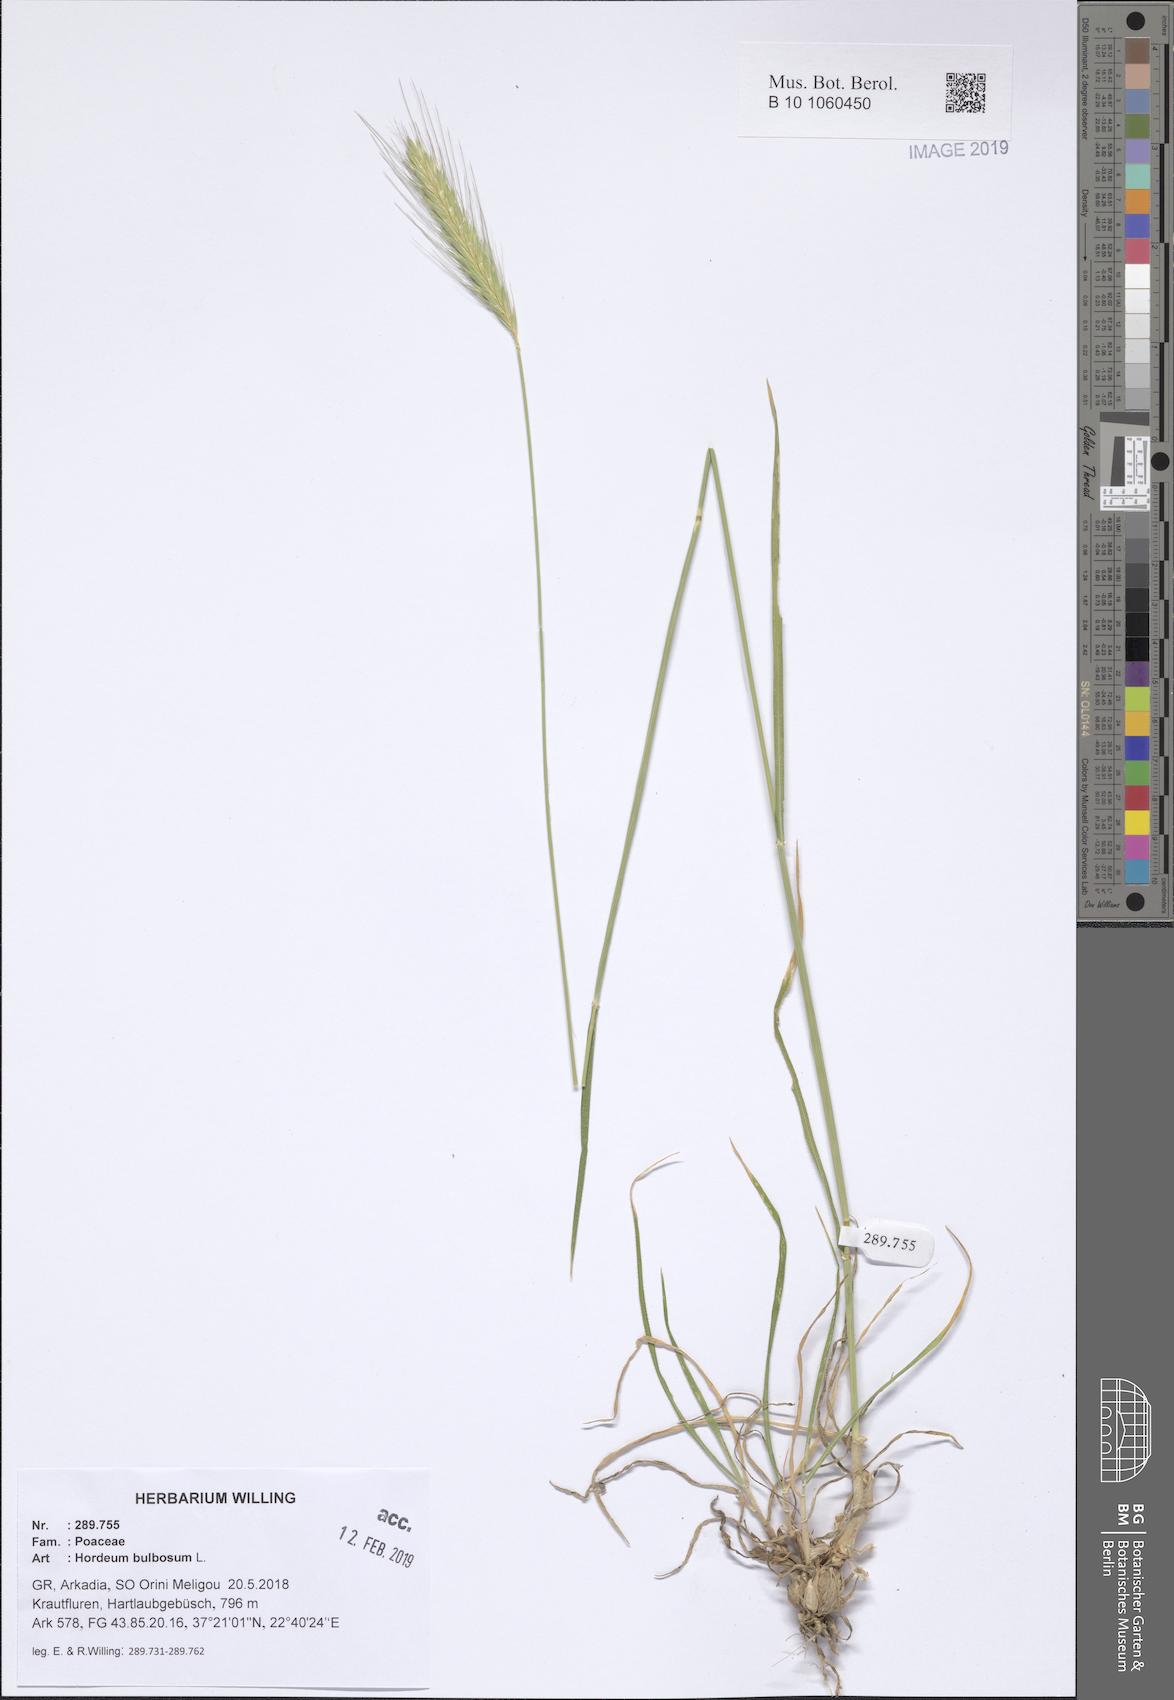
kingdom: Plantae
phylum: Tracheophyta
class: Liliopsida
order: Poales
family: Poaceae
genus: Hordeum
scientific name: Hordeum bulbosum
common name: Bulbous barley
